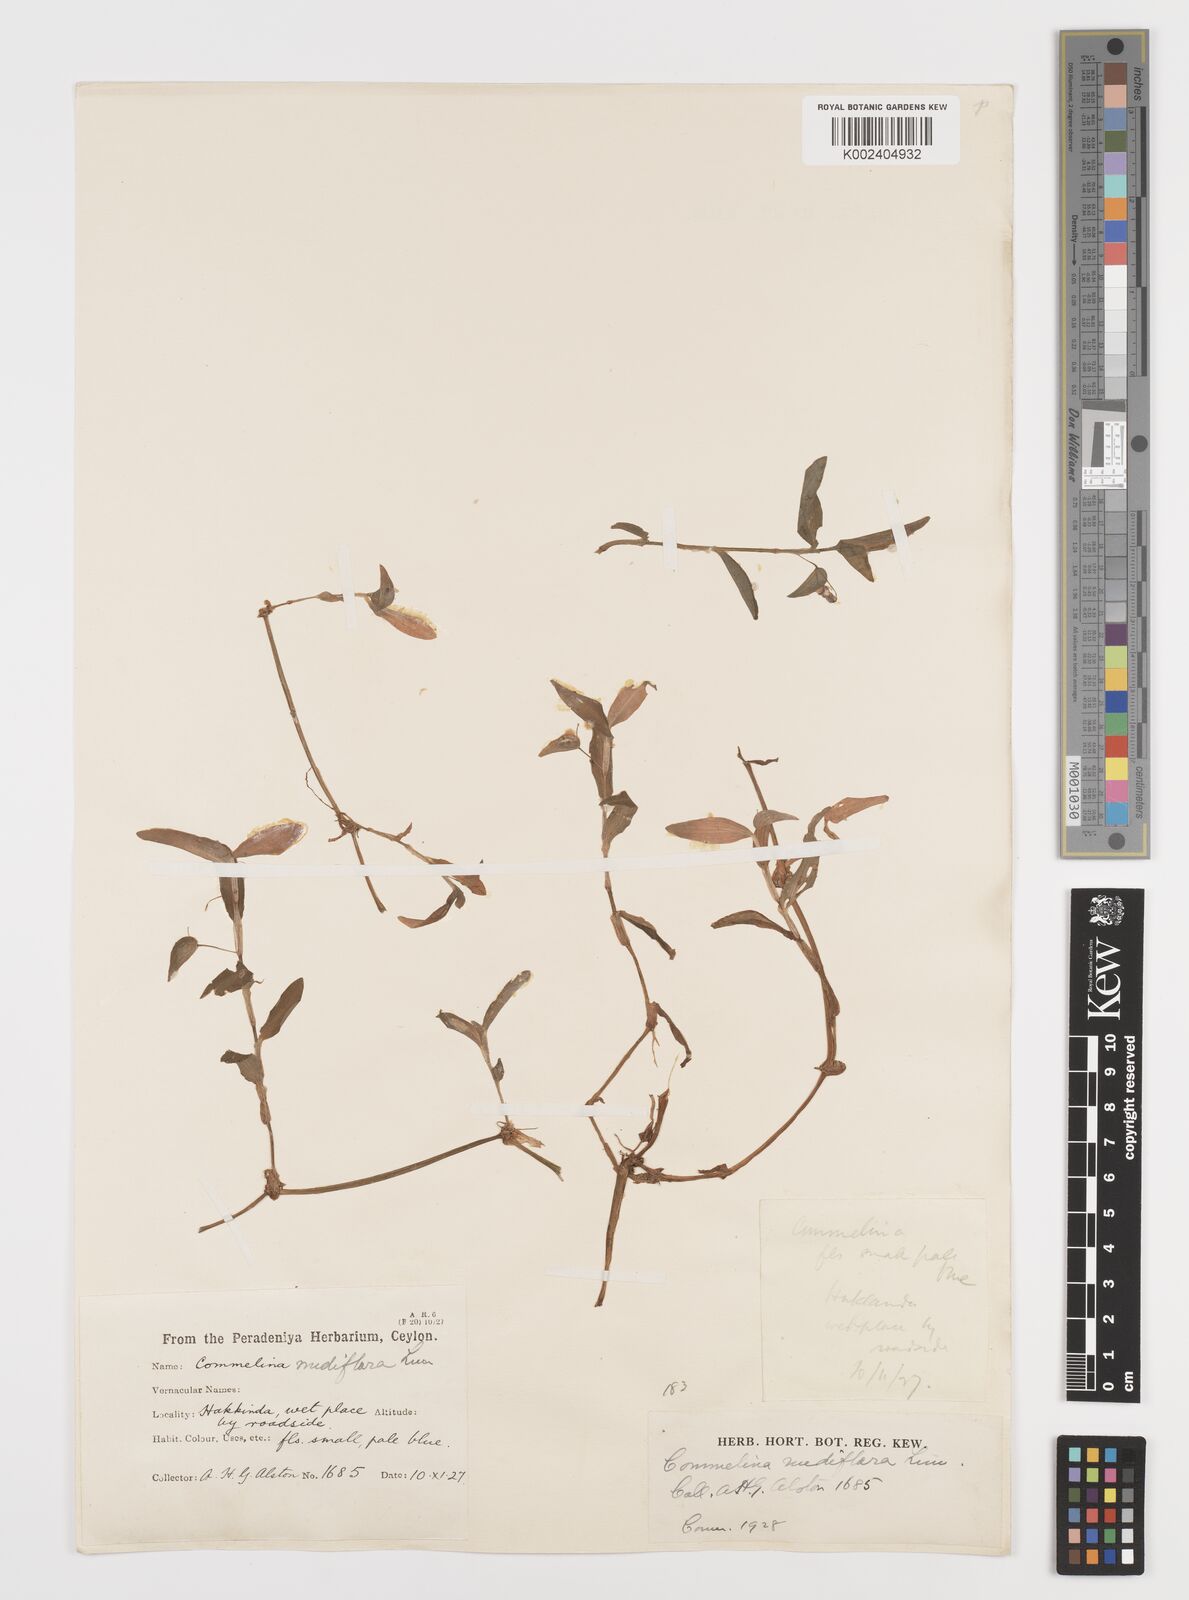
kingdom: Plantae
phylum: Tracheophyta
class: Liliopsida
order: Commelinales
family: Commelinaceae
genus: Murdannia
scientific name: Murdannia nudiflora
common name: Nakedstem dewflower
